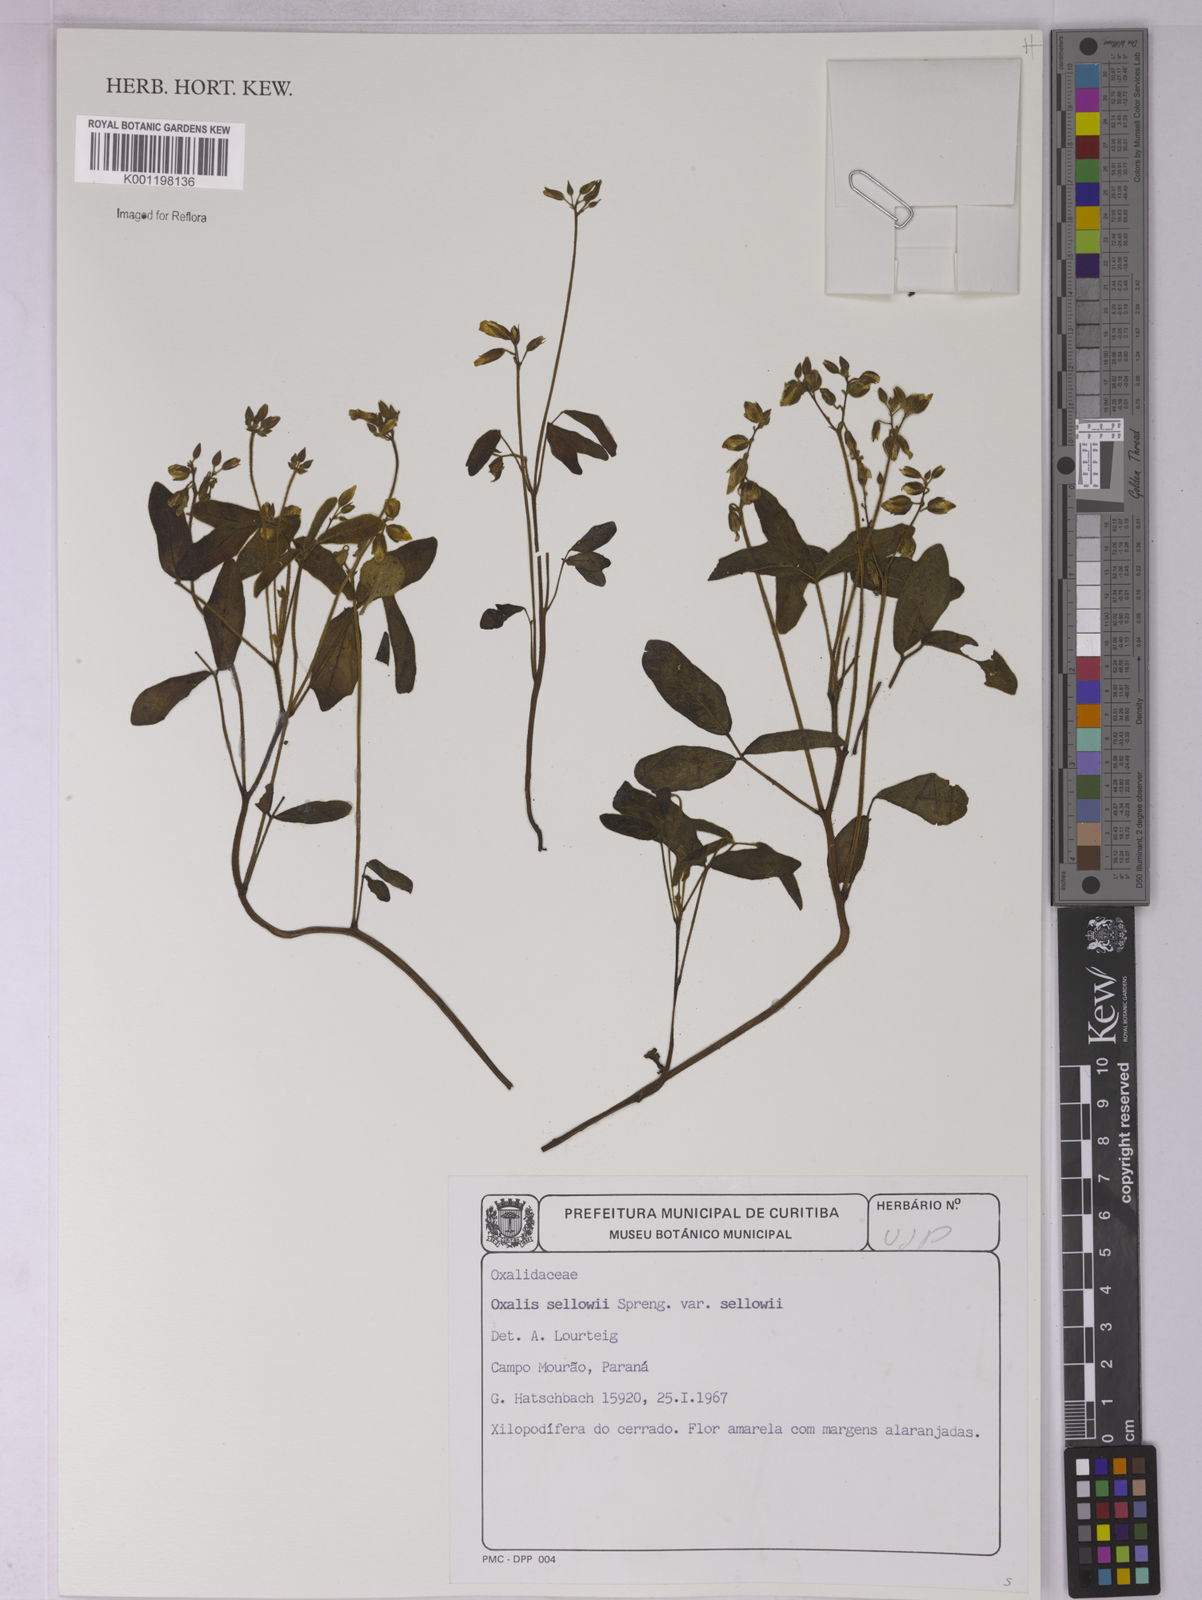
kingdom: Plantae
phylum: Tracheophyta
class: Magnoliopsida
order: Oxalidales
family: Oxalidaceae
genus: Oxalis
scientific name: Oxalis sellowii
